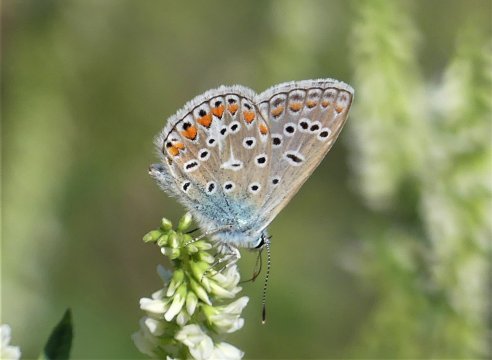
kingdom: Animalia
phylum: Arthropoda
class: Insecta
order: Lepidoptera
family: Lycaenidae
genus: Polyommatus
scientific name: Polyommatus icarus
